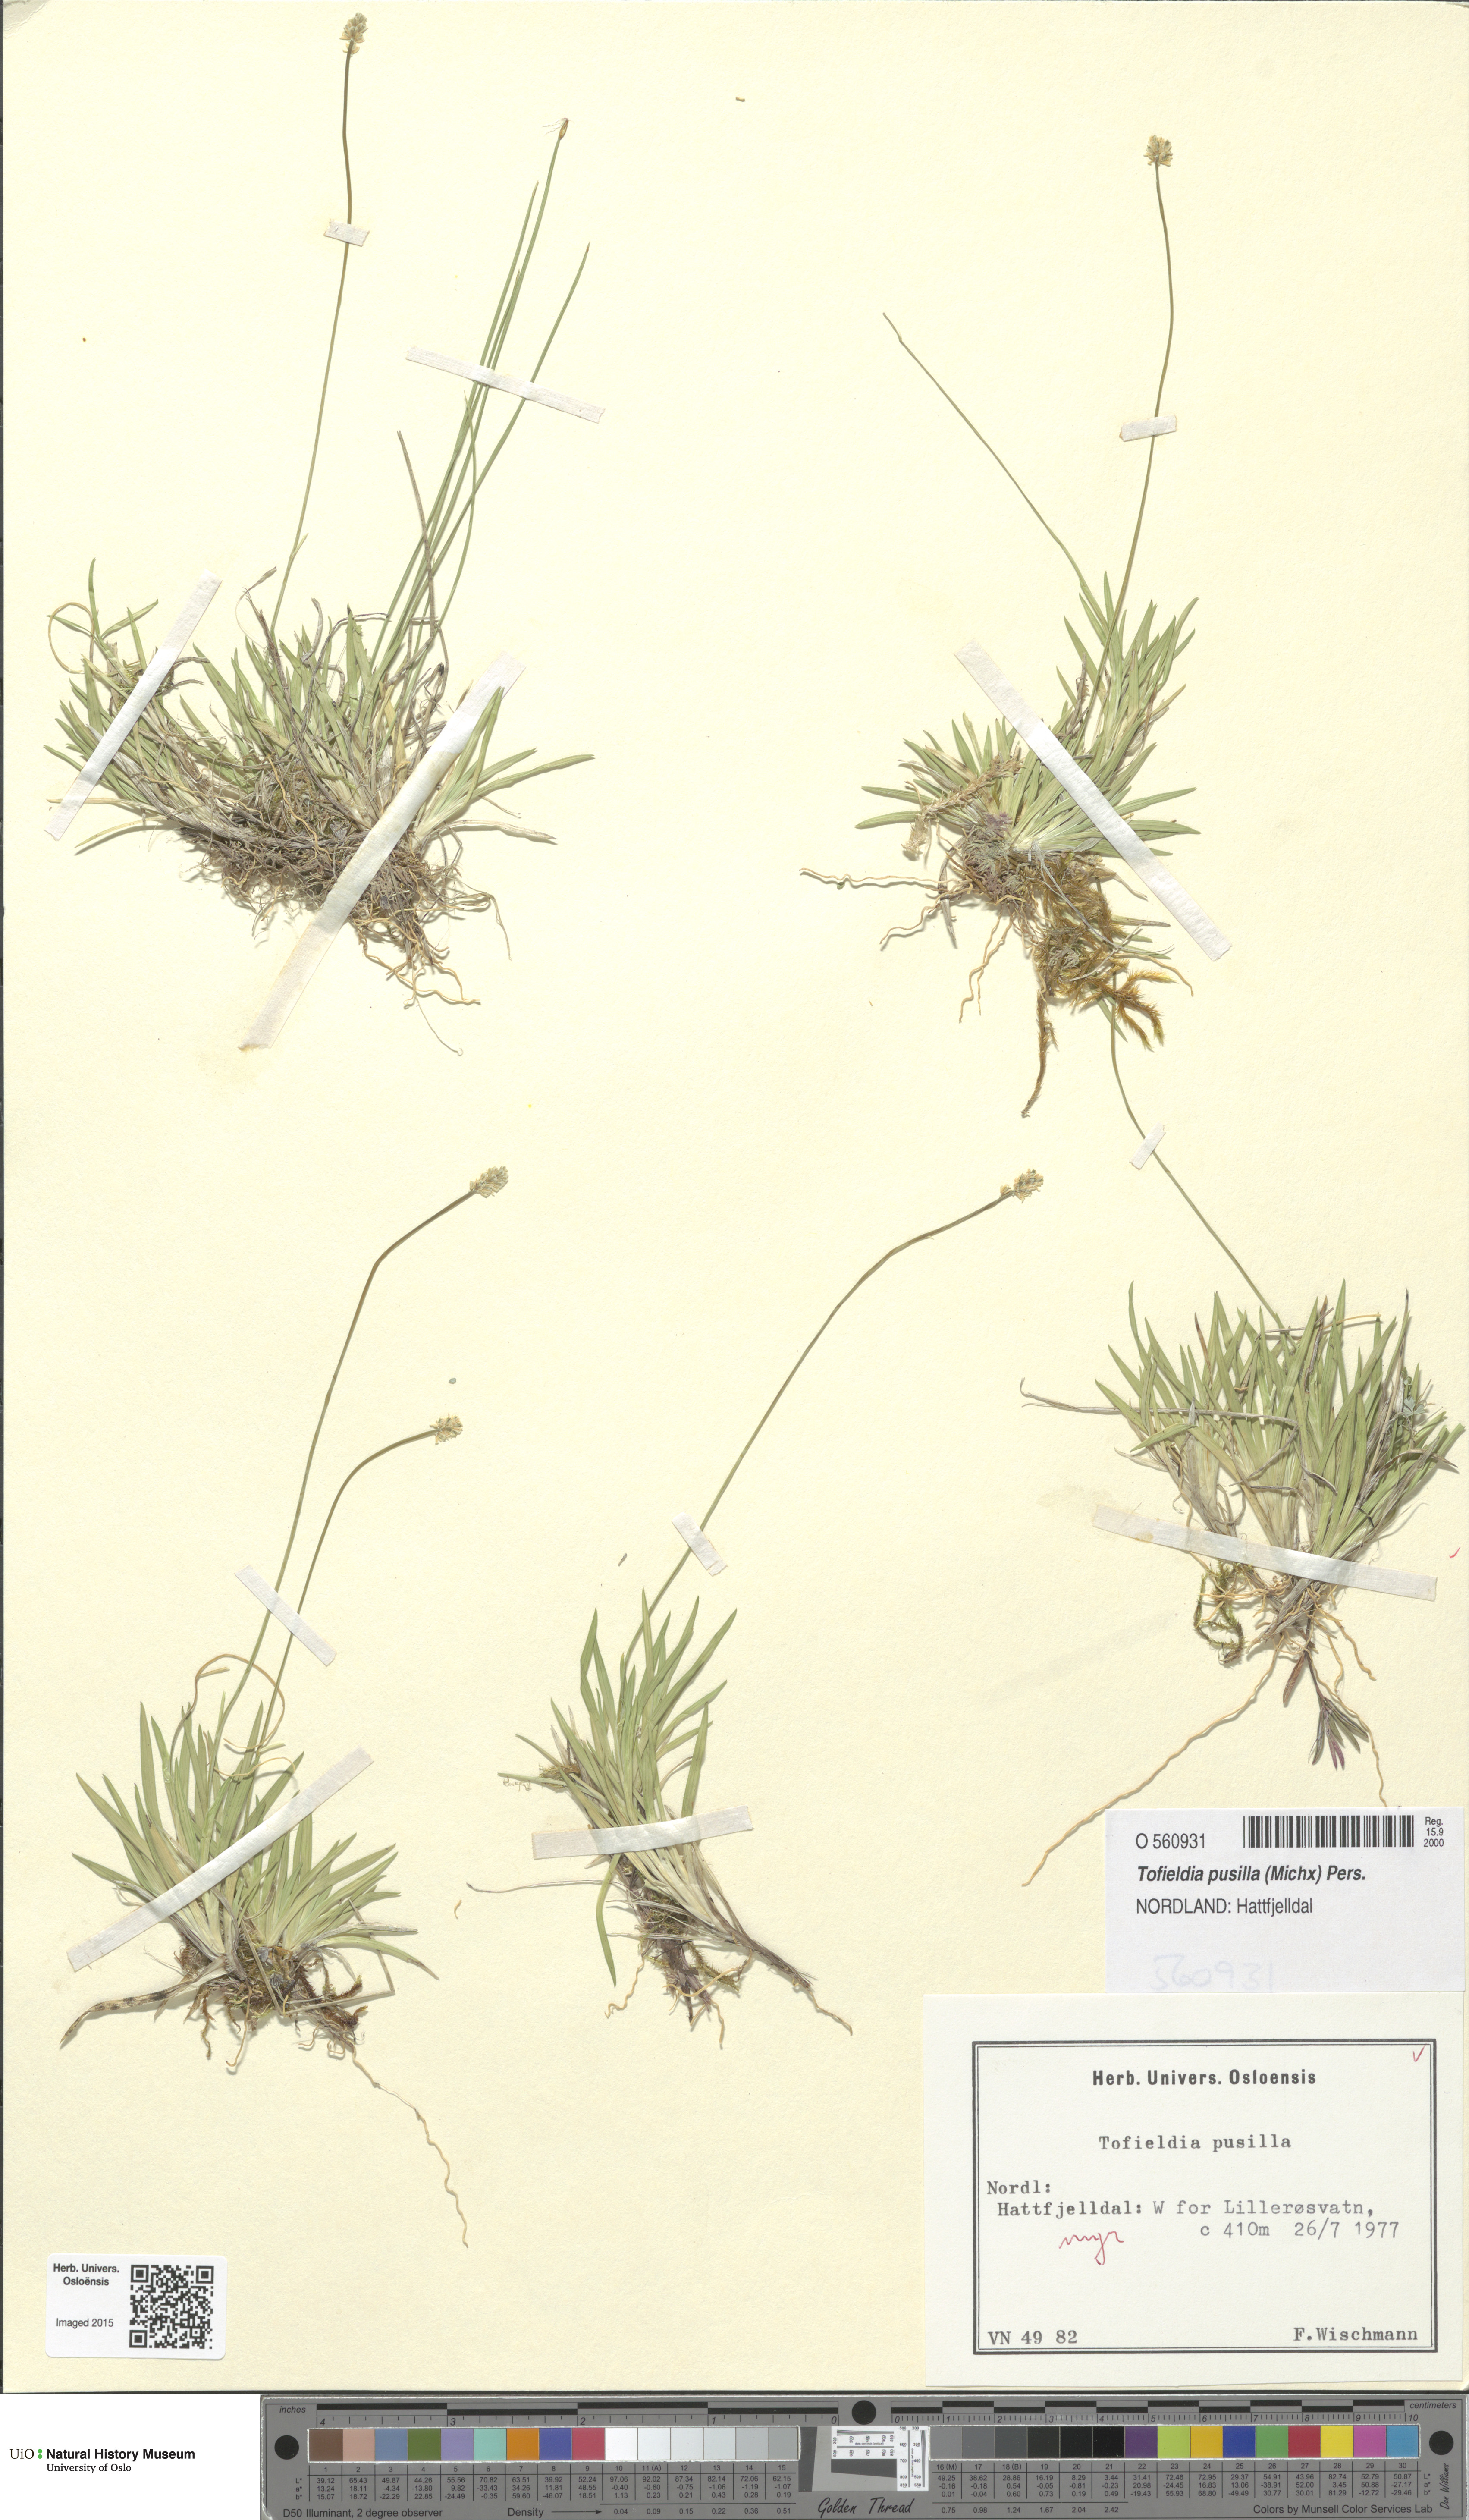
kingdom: Plantae
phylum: Tracheophyta
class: Liliopsida
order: Alismatales
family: Tofieldiaceae
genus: Tofieldia
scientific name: Tofieldia pusilla
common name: Scottish false asphodel
